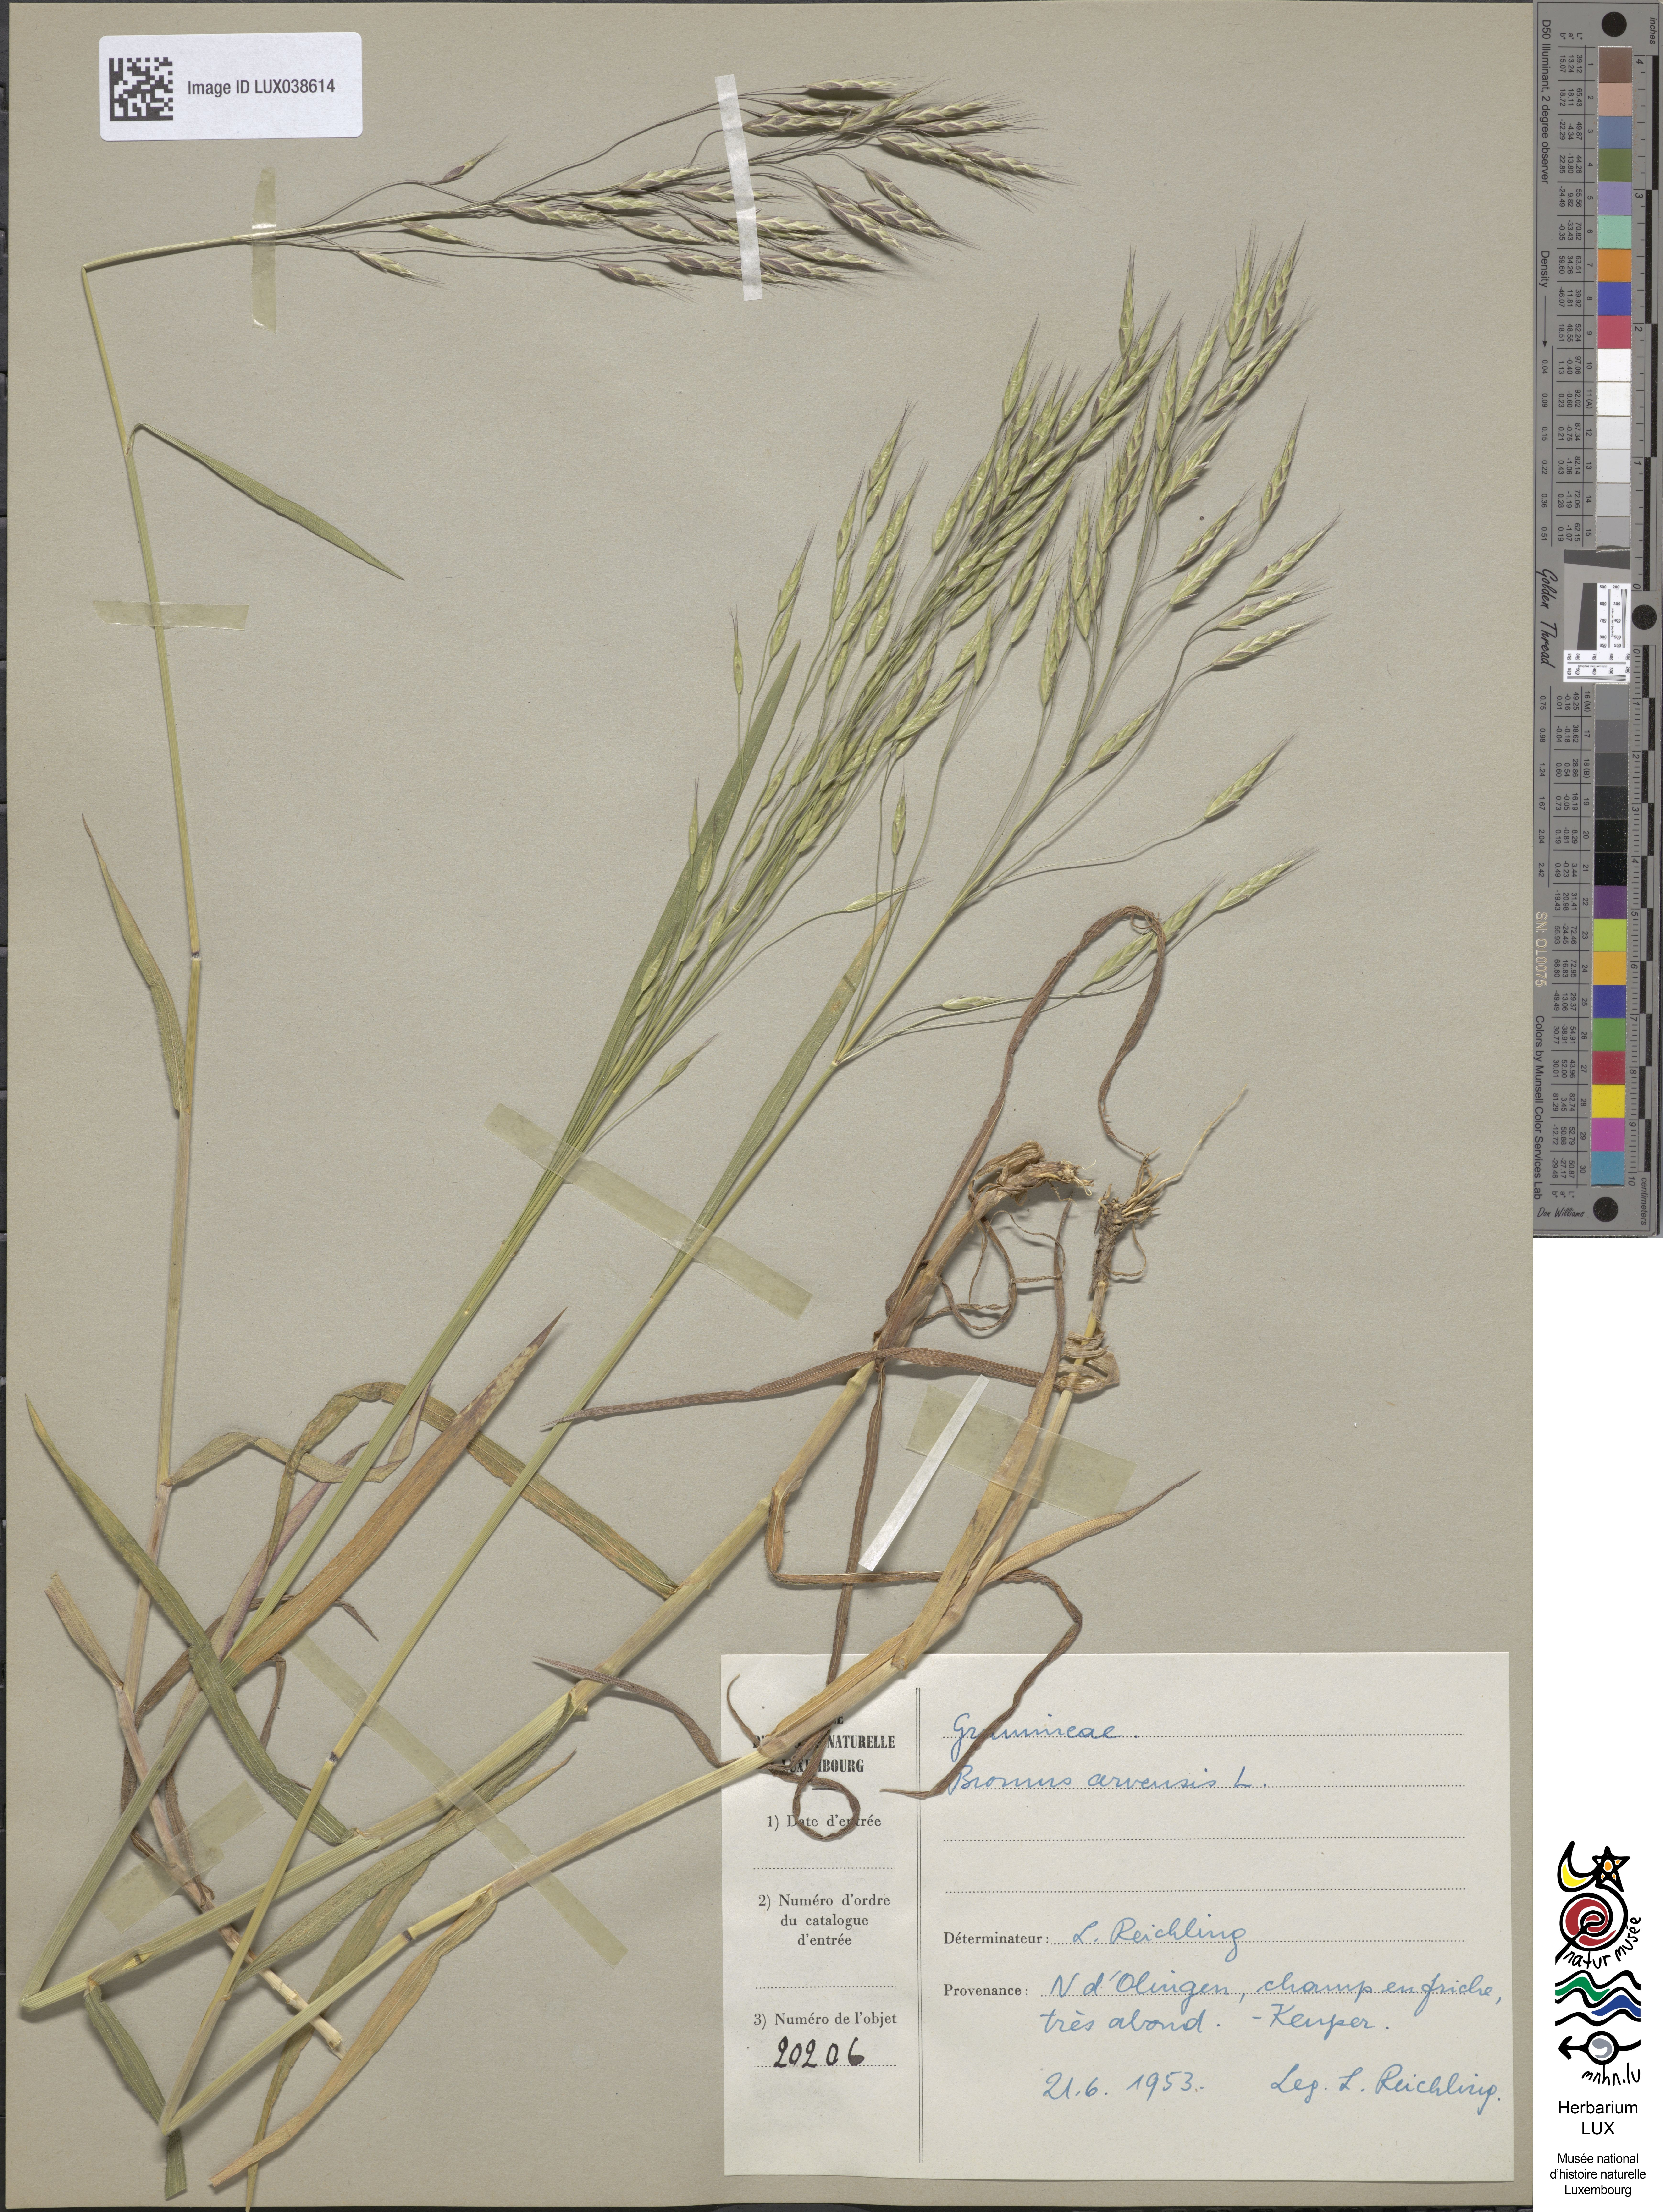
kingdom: Plantae
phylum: Tracheophyta
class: Liliopsida
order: Poales
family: Poaceae
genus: Bromus
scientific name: Bromus arvensis
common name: Field brome
